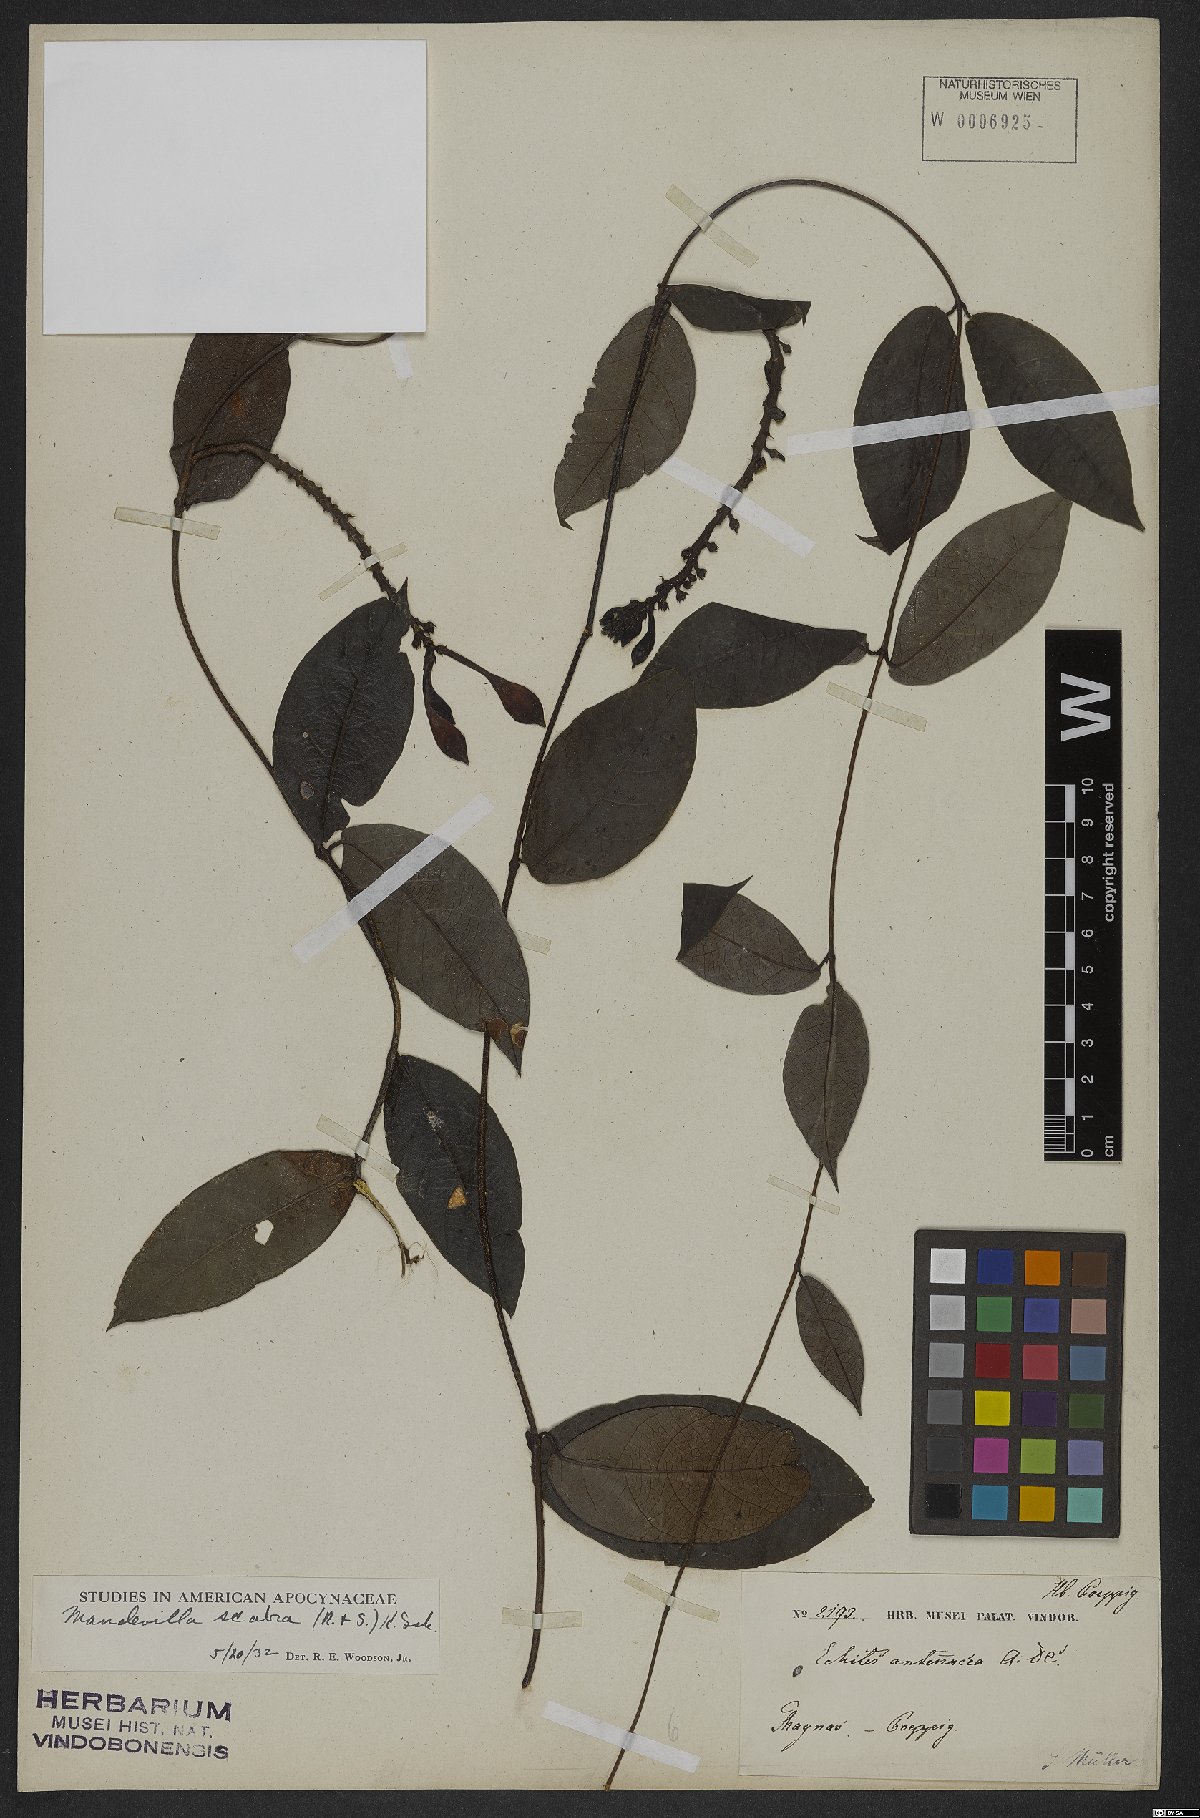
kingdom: Plantae
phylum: Tracheophyta
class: Magnoliopsida
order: Gentianales
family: Apocynaceae
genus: Mandevilla
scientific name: Mandevilla scabra
